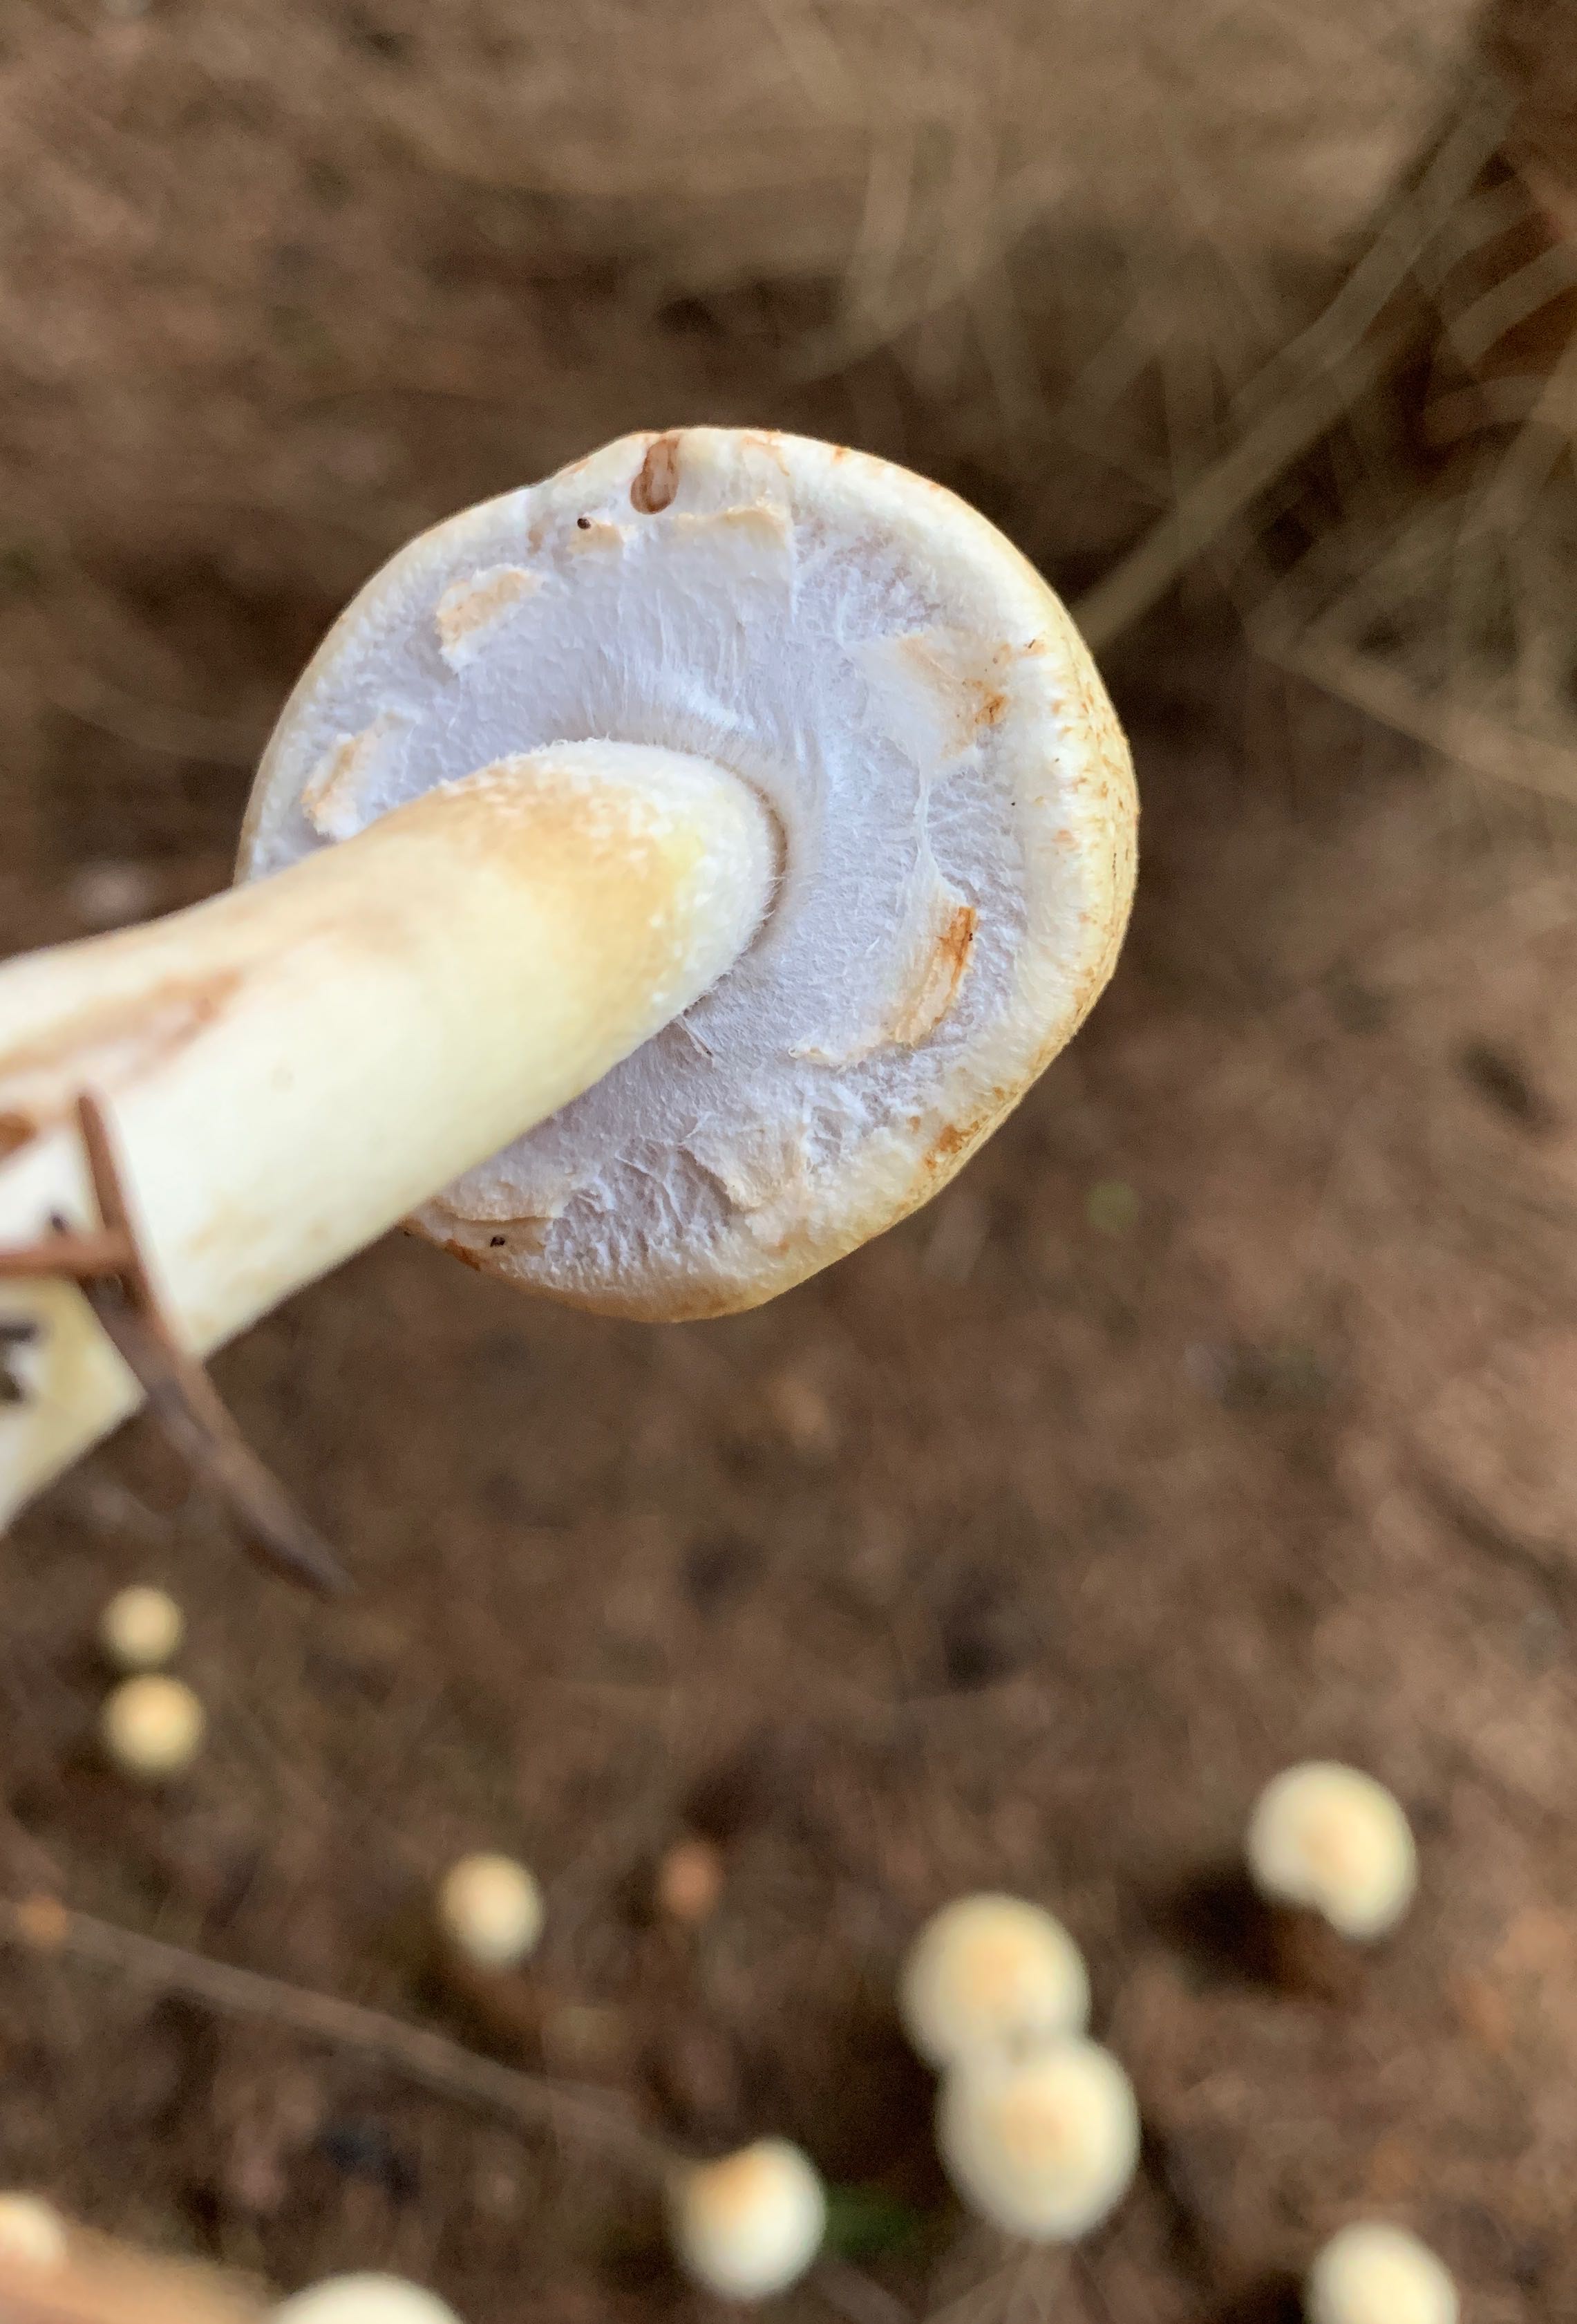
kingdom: Fungi
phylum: Basidiomycota
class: Agaricomycetes
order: Agaricales
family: Agaricaceae
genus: Agaricus
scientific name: Agaricus
